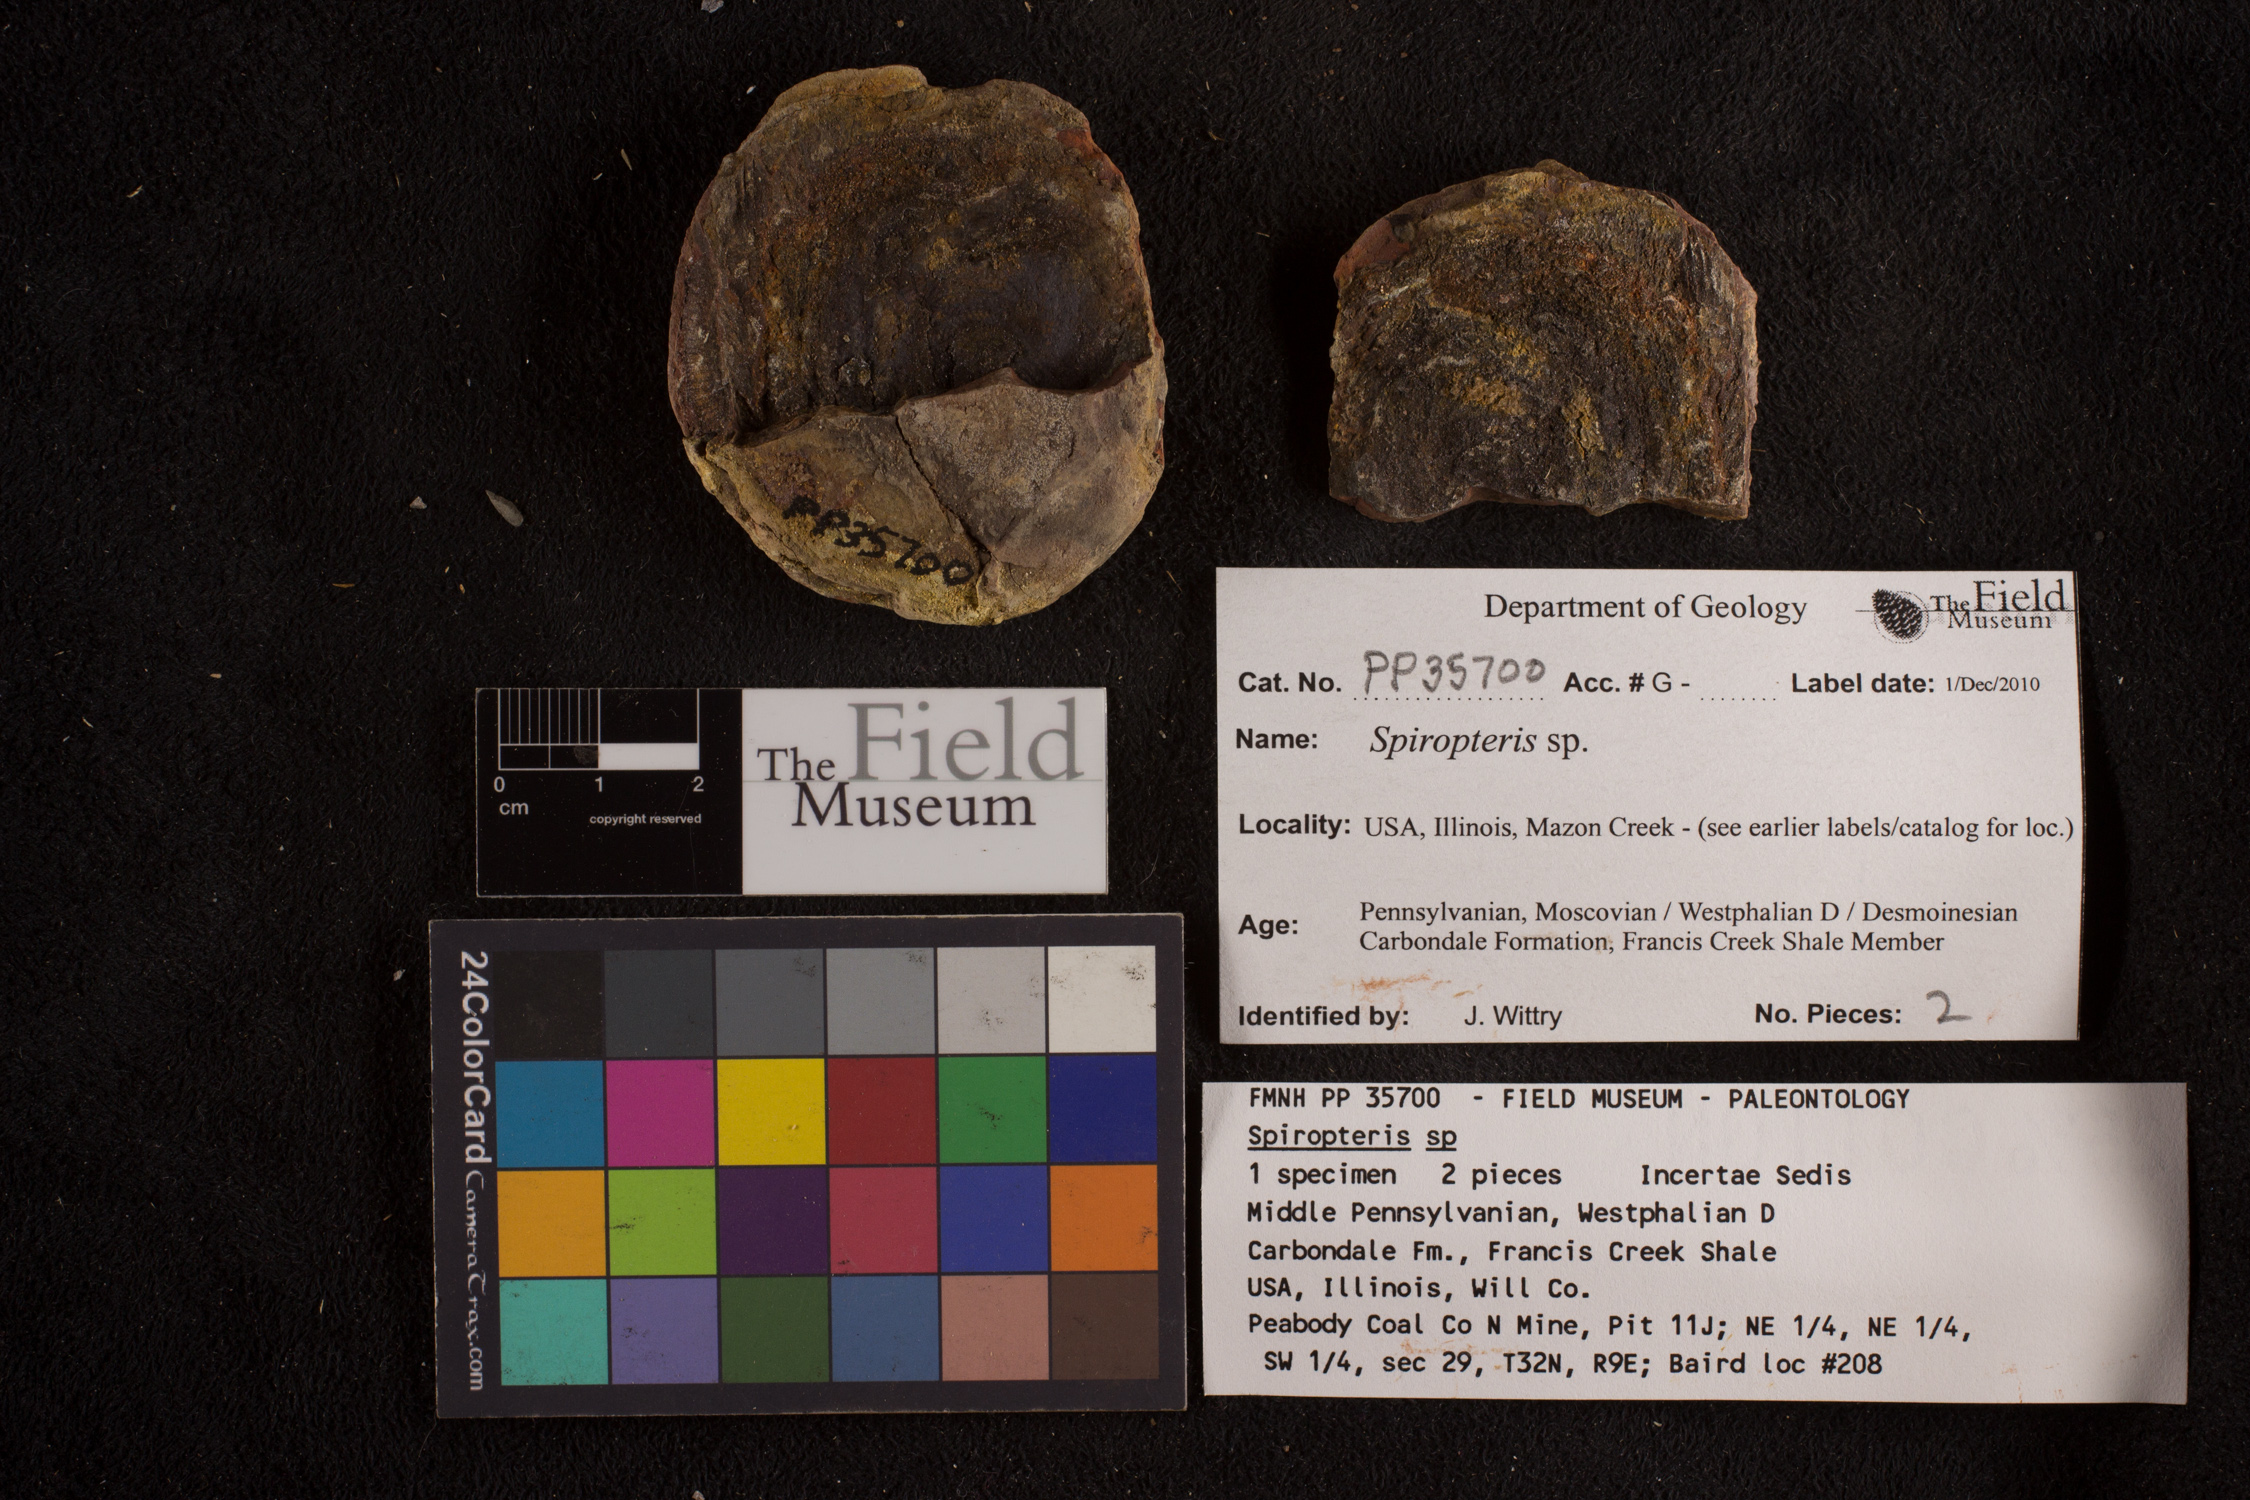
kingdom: Plantae
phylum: Tracheophyta
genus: Spiropteris
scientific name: Spiropteris
